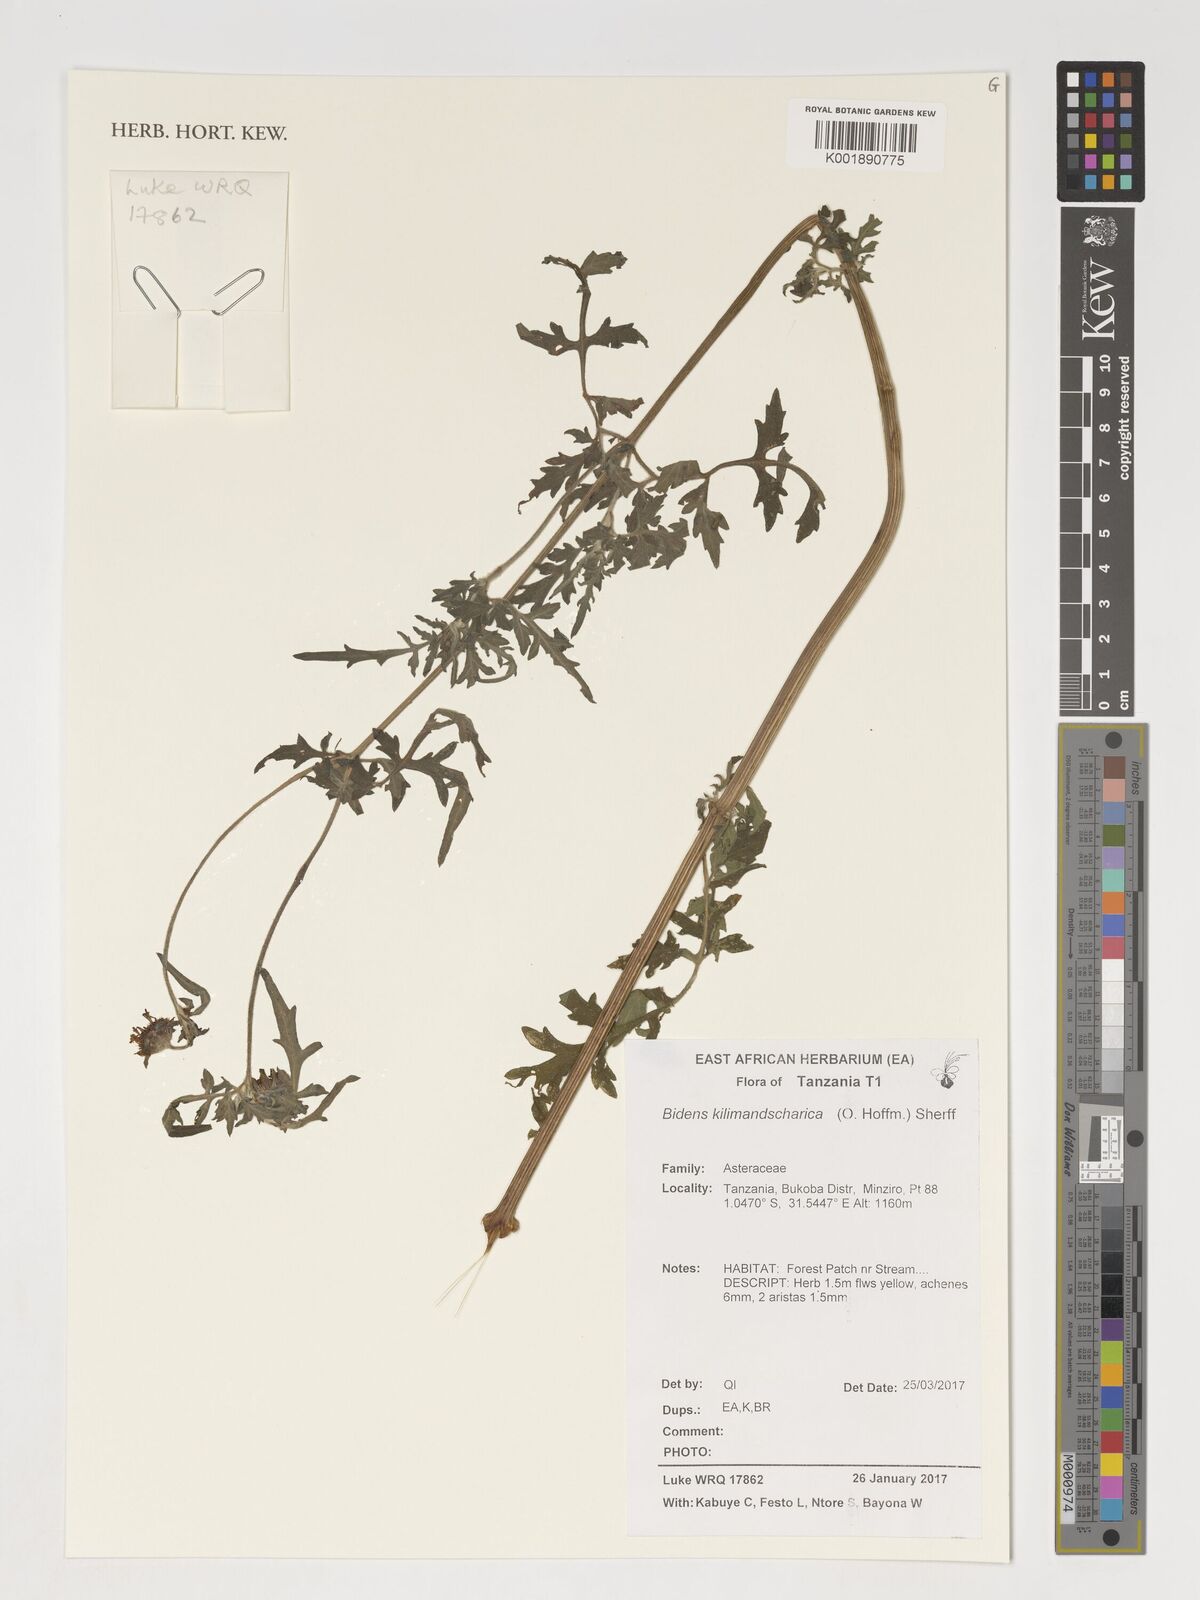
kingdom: Plantae
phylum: Tracheophyta
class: Magnoliopsida
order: Asterales
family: Asteraceae
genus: Bidens
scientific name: Bidens kilimandscharica
